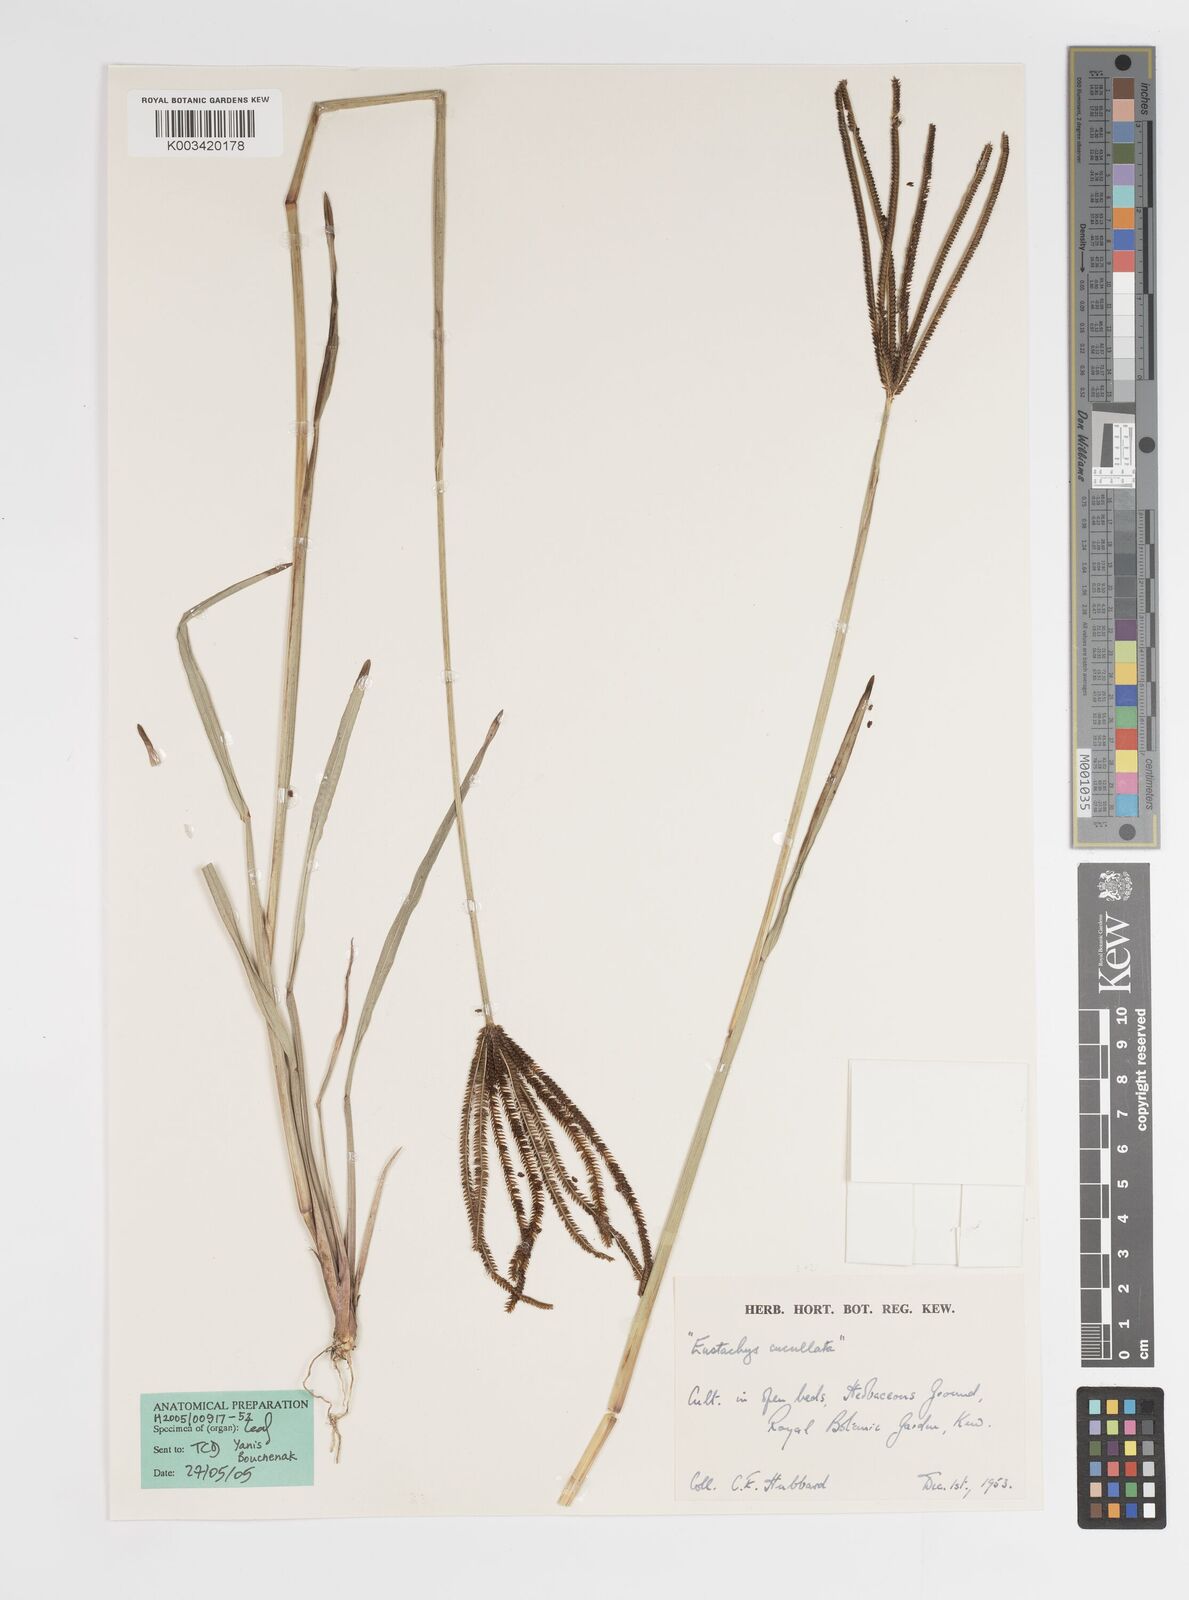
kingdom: Plantae
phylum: Tracheophyta
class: Liliopsida
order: Poales
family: Poaceae
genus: Eustachys
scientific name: Eustachys petraea
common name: Pinewoods fingergrass
